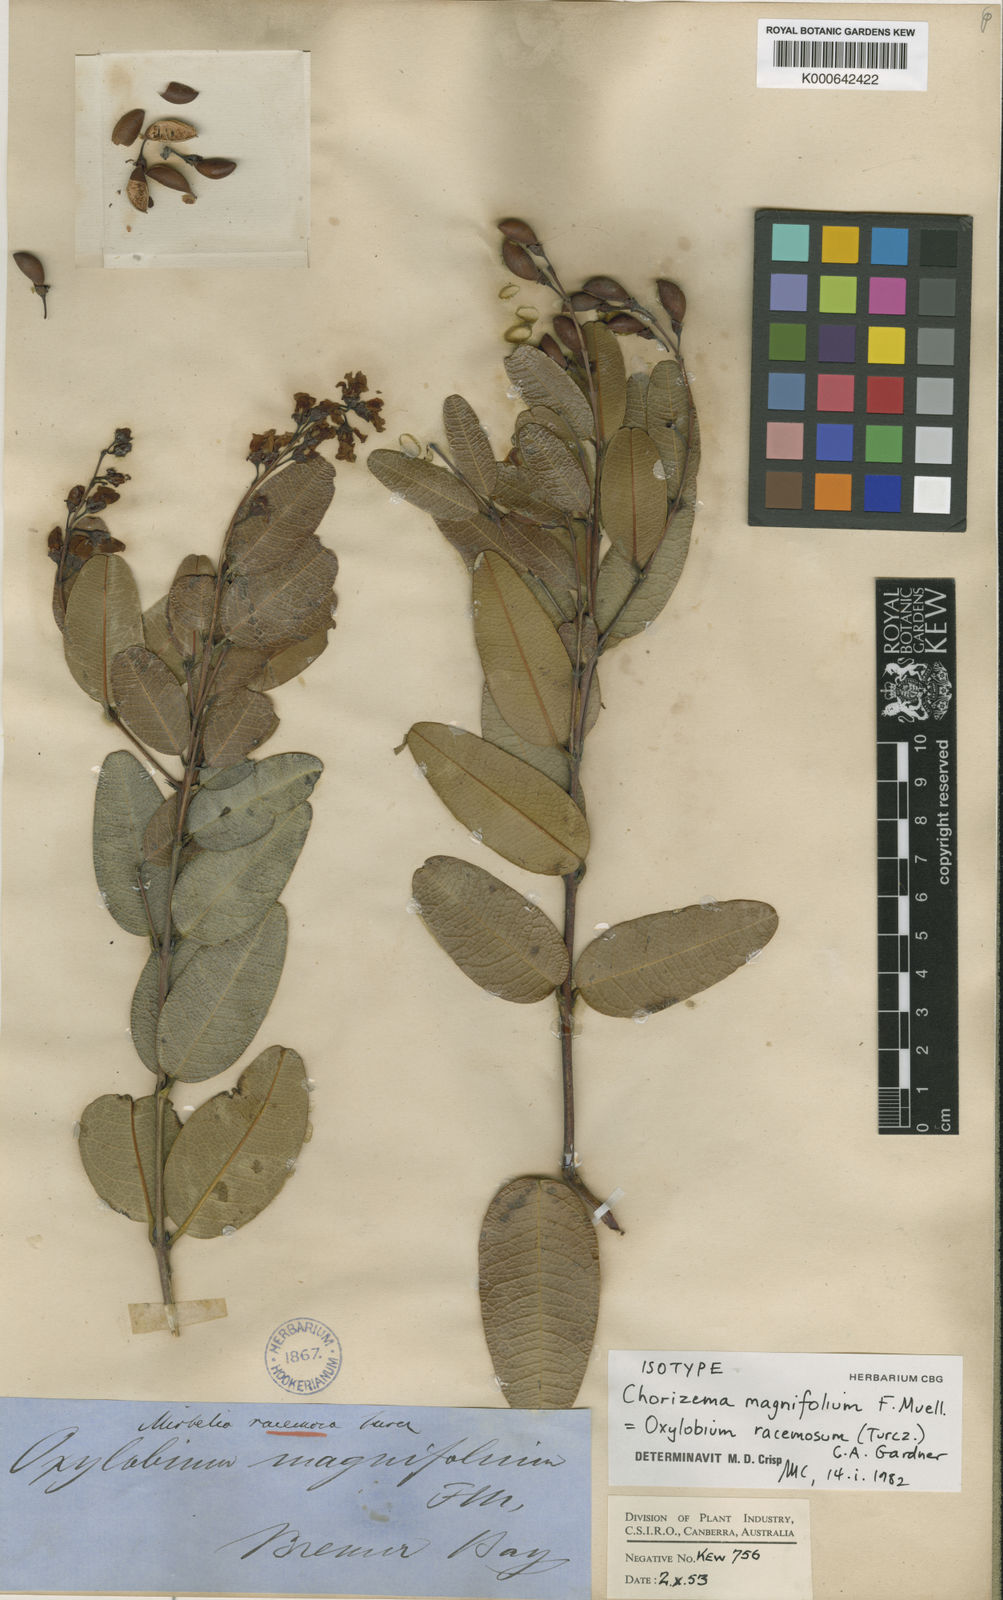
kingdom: Plantae
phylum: Tracheophyta
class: Magnoliopsida
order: Fabales
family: Fabaceae
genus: Gastrolobium
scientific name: Gastrolobium racemosum
